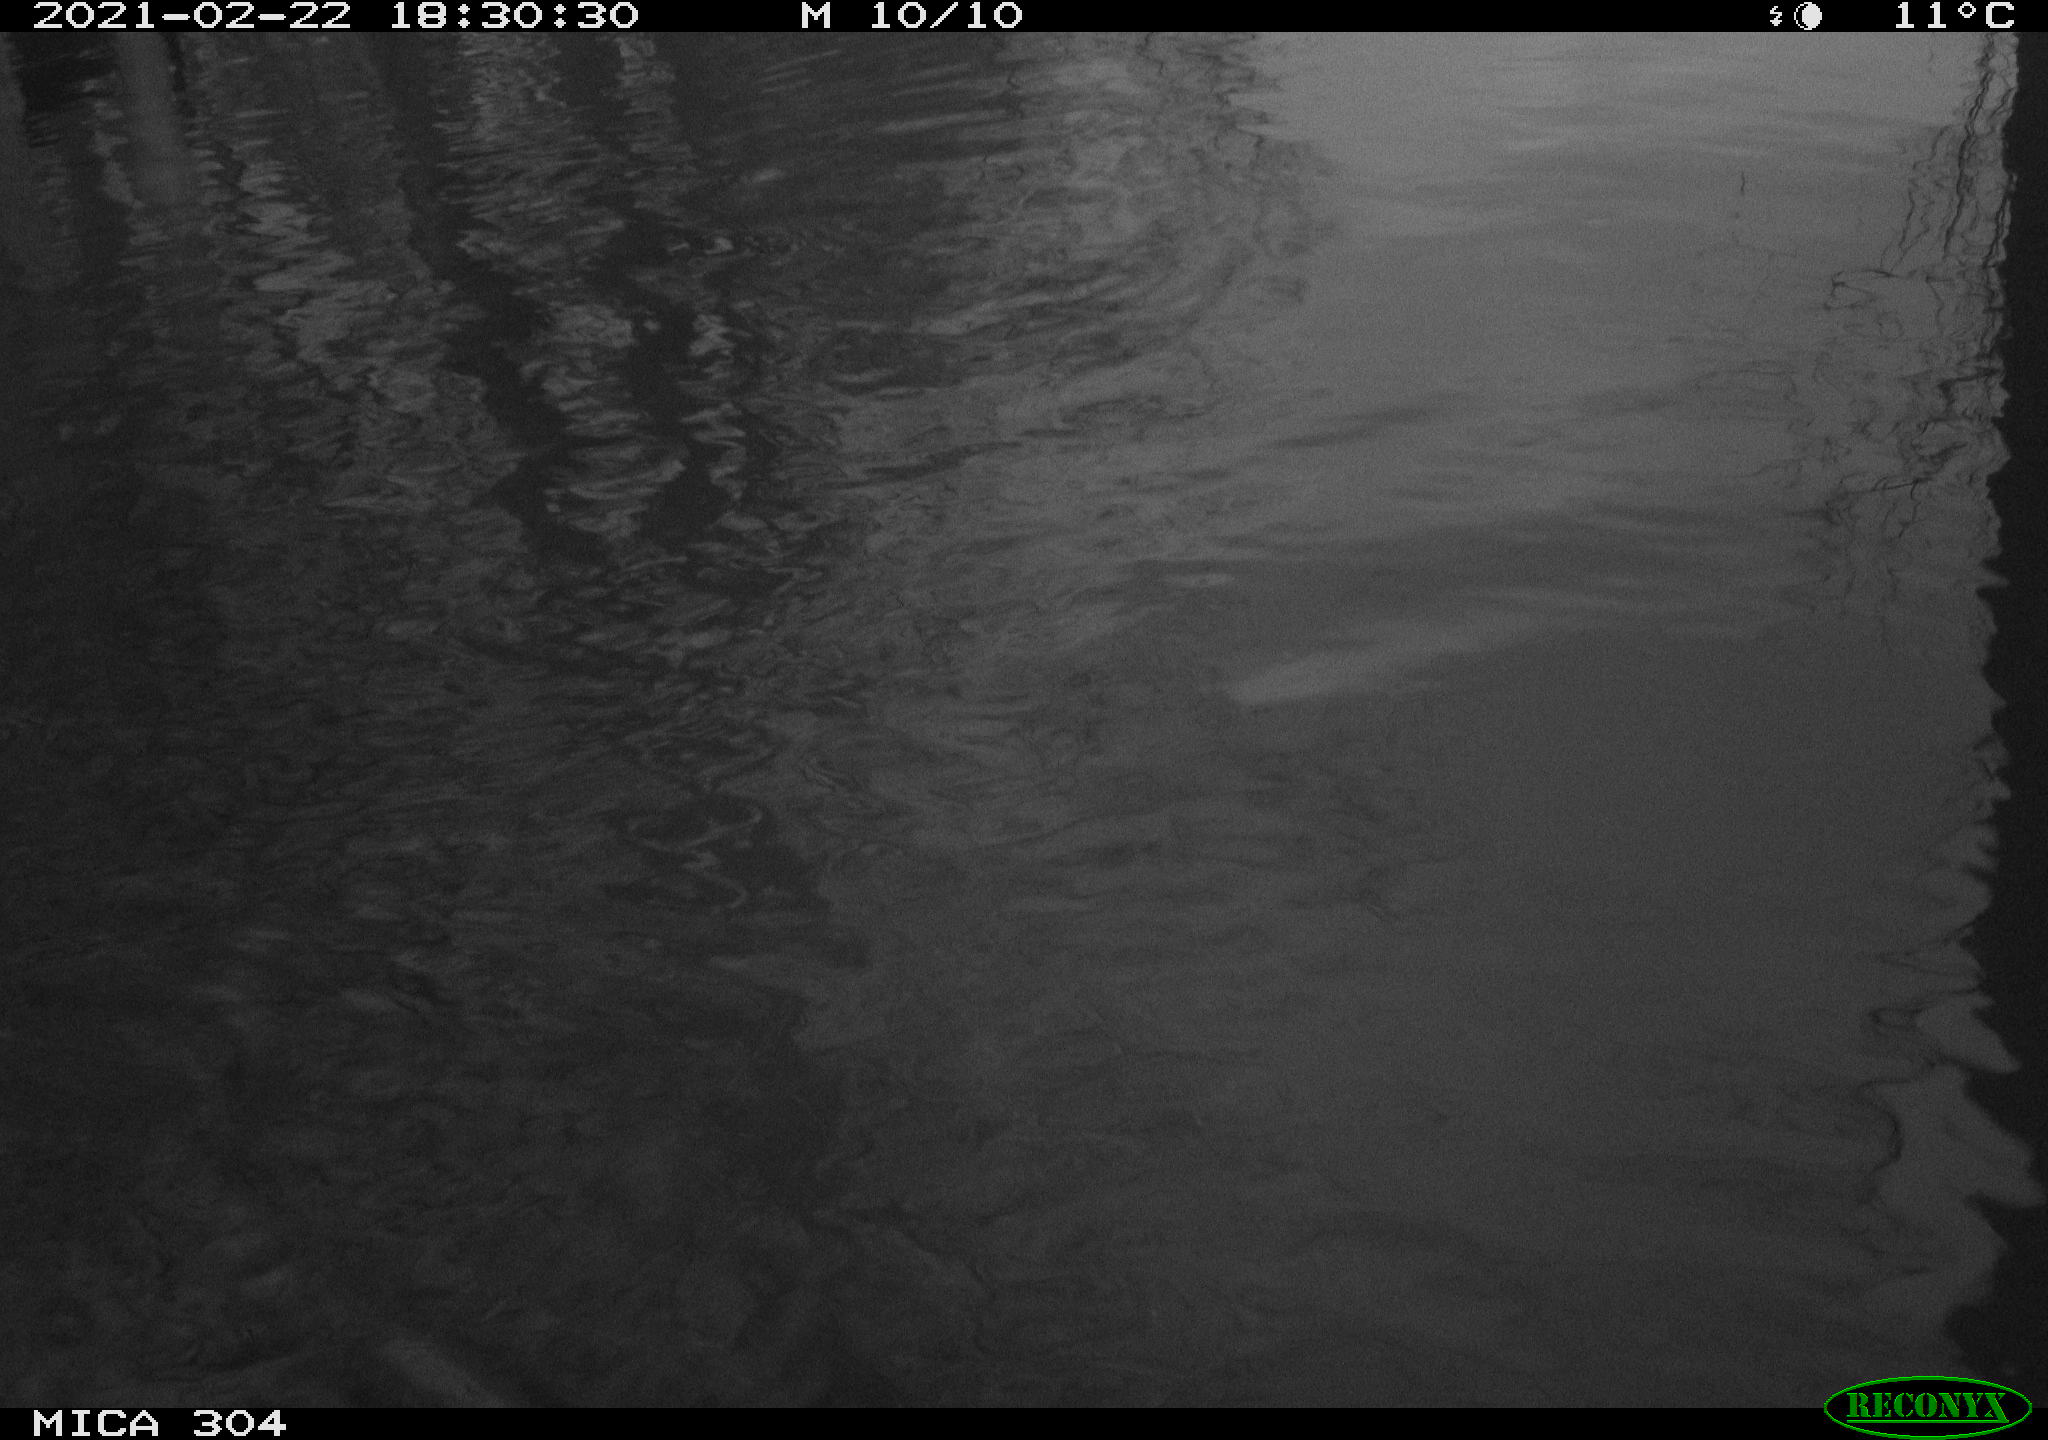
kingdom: Animalia
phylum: Chordata
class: Aves
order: Gruiformes
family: Rallidae
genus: Fulica
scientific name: Fulica atra
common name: Eurasian coot
